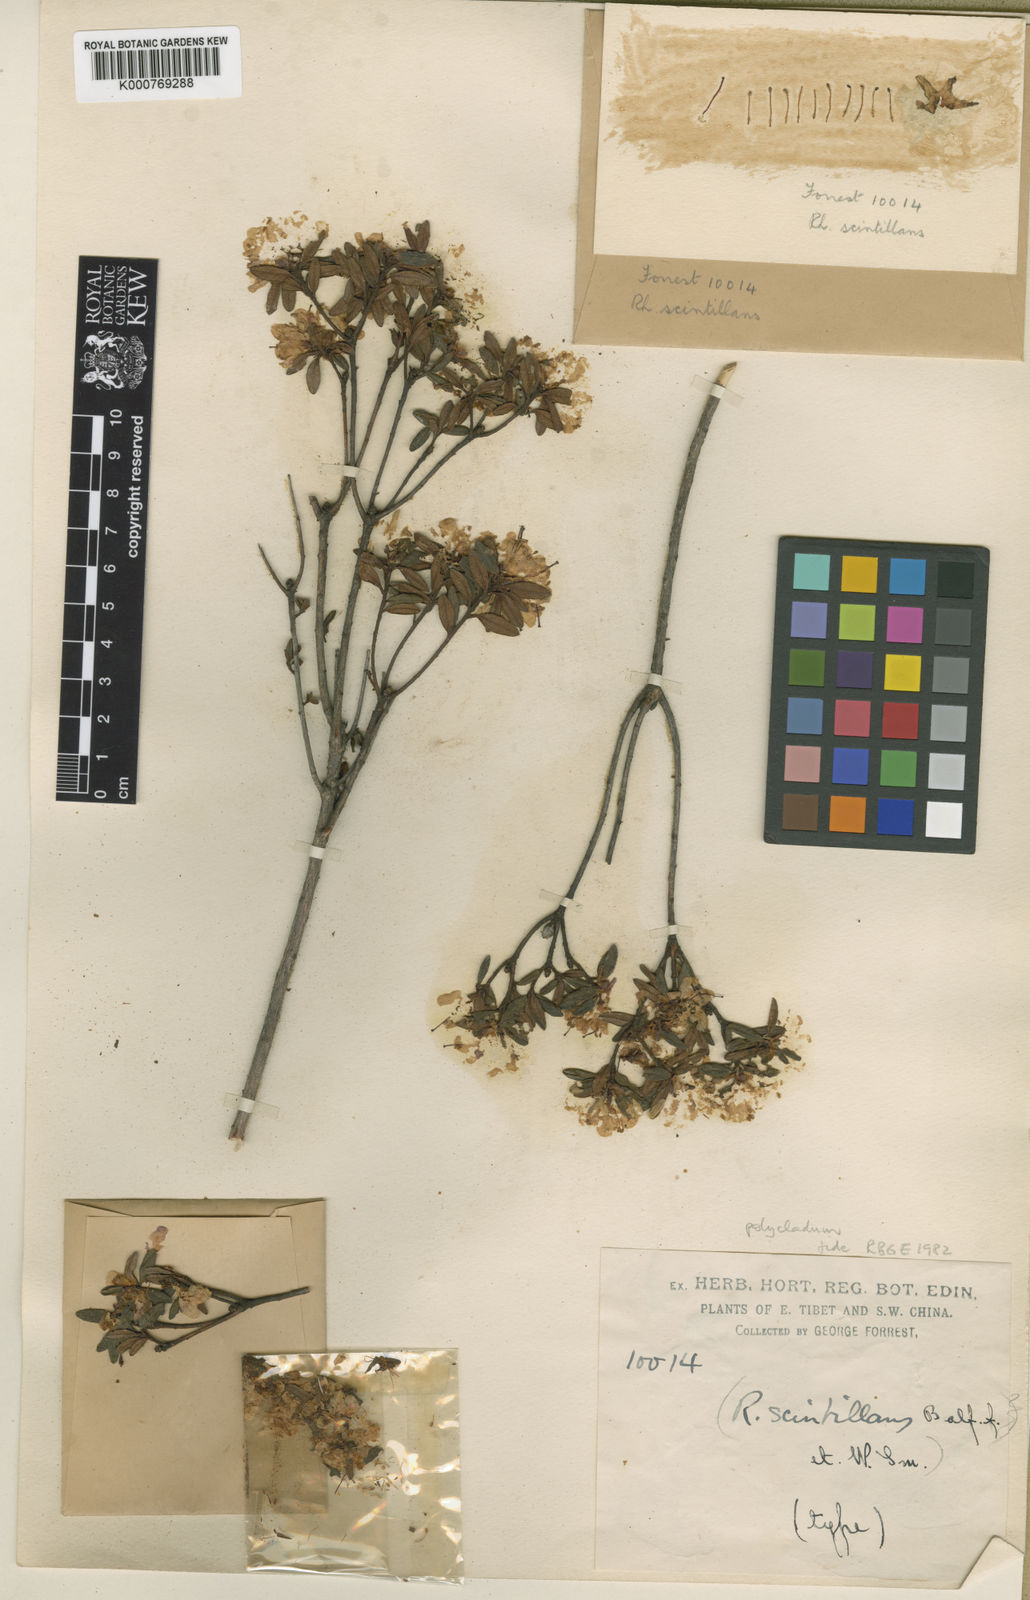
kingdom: Plantae
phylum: Tracheophyta
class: Magnoliopsida
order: Ericales
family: Ericaceae
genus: Rhododendron
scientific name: Rhododendron polycladum
